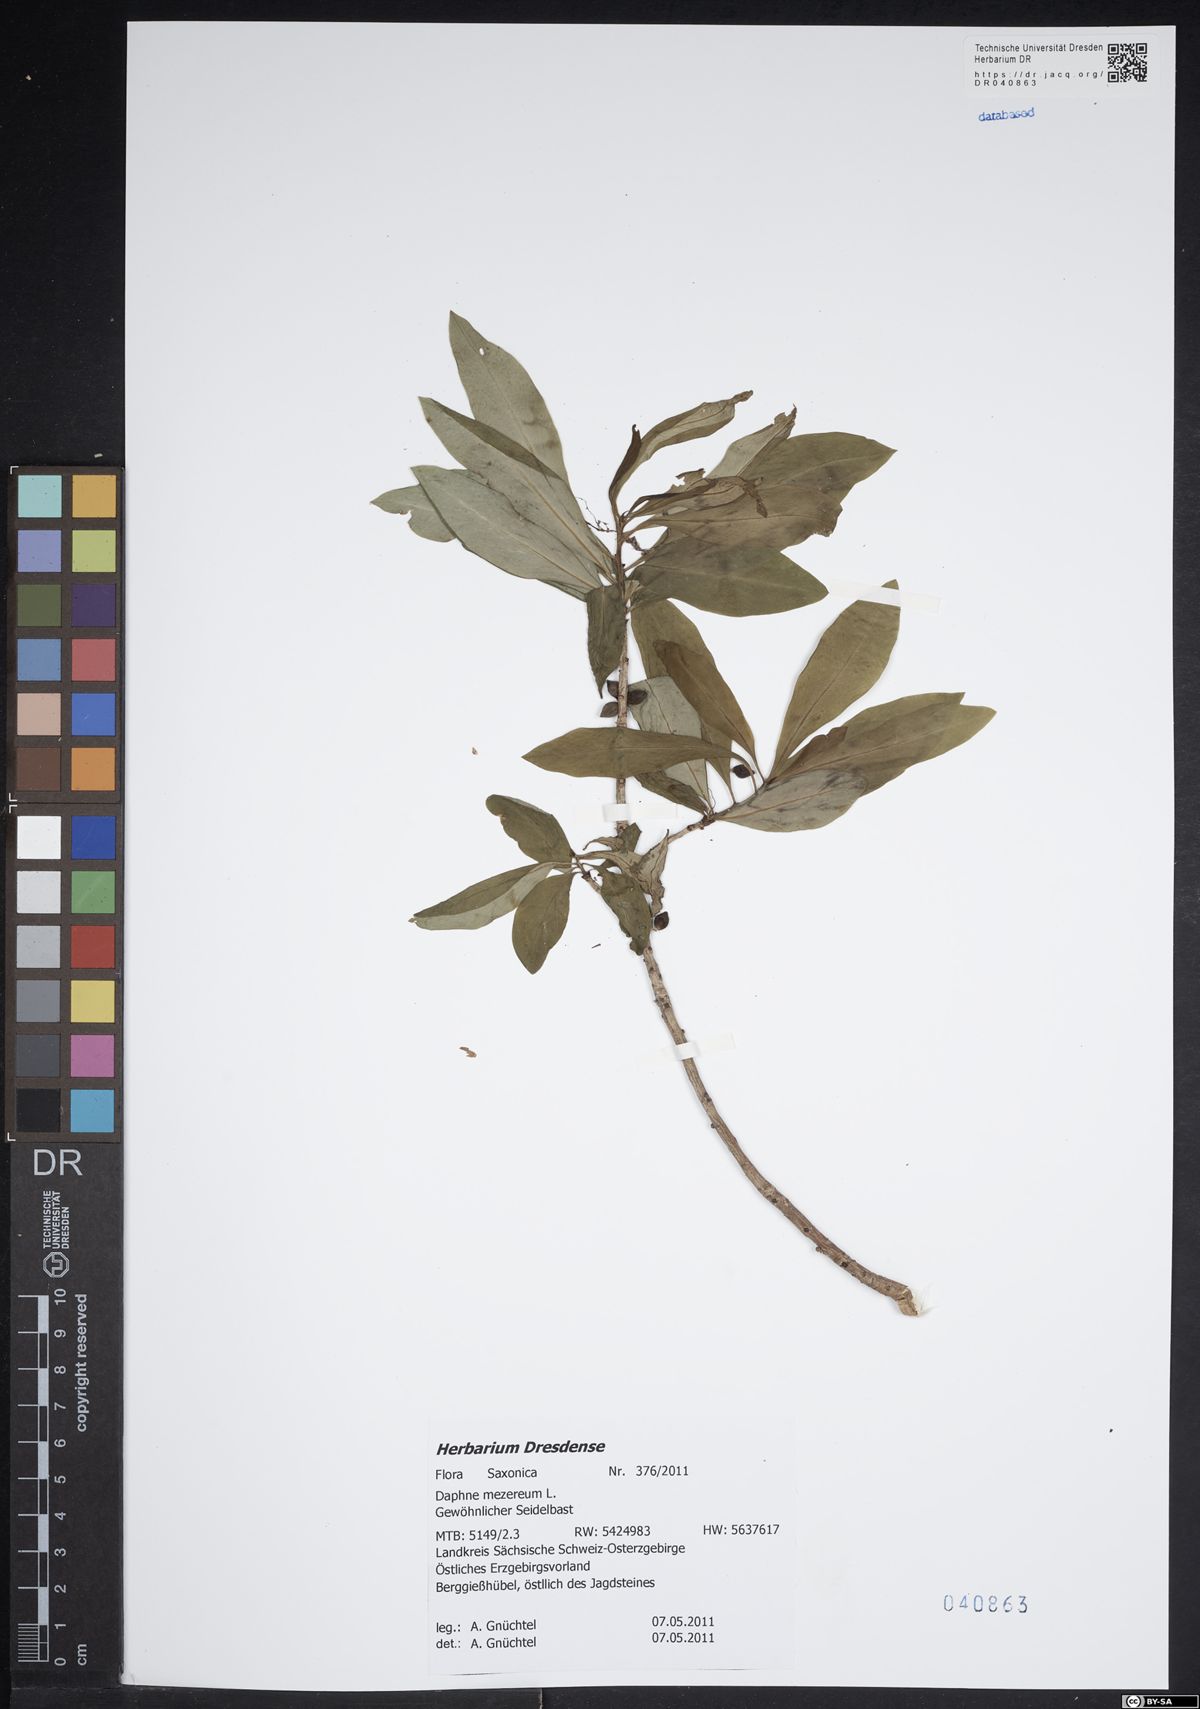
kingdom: Plantae
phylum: Tracheophyta
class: Magnoliopsida
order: Malvales
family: Thymelaeaceae
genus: Daphne
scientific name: Daphne mezereum
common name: Mezereon
